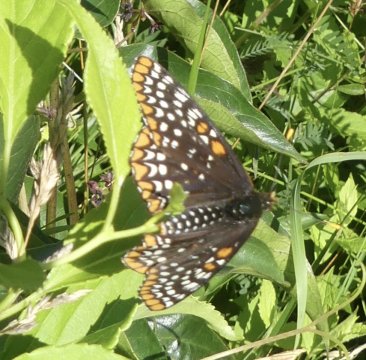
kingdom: Animalia
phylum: Arthropoda
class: Insecta
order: Lepidoptera
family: Nymphalidae
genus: Euphydryas
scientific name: Euphydryas phaeton
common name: Baltimore Checkerspot
